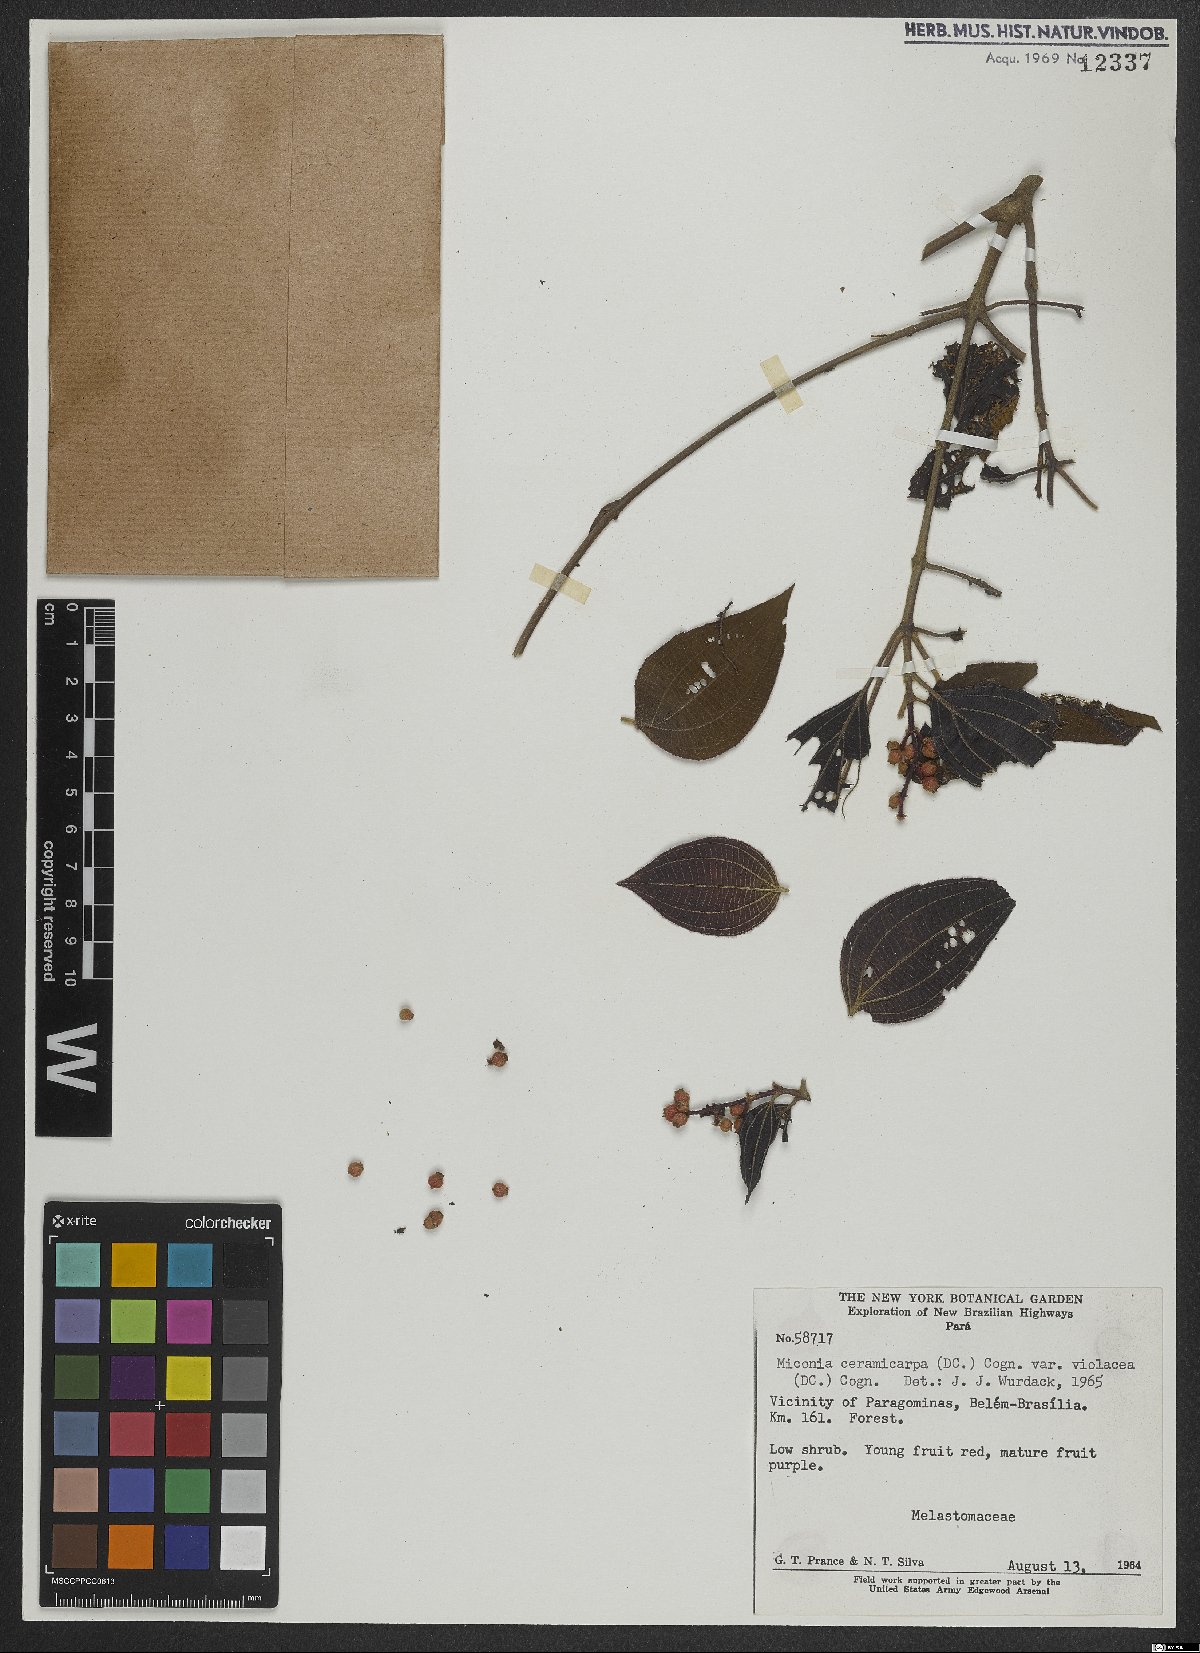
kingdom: Plantae
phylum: Tracheophyta
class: Magnoliopsida
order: Myrtales
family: Melastomataceae
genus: Miconia
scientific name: Miconia ceramicarpa
